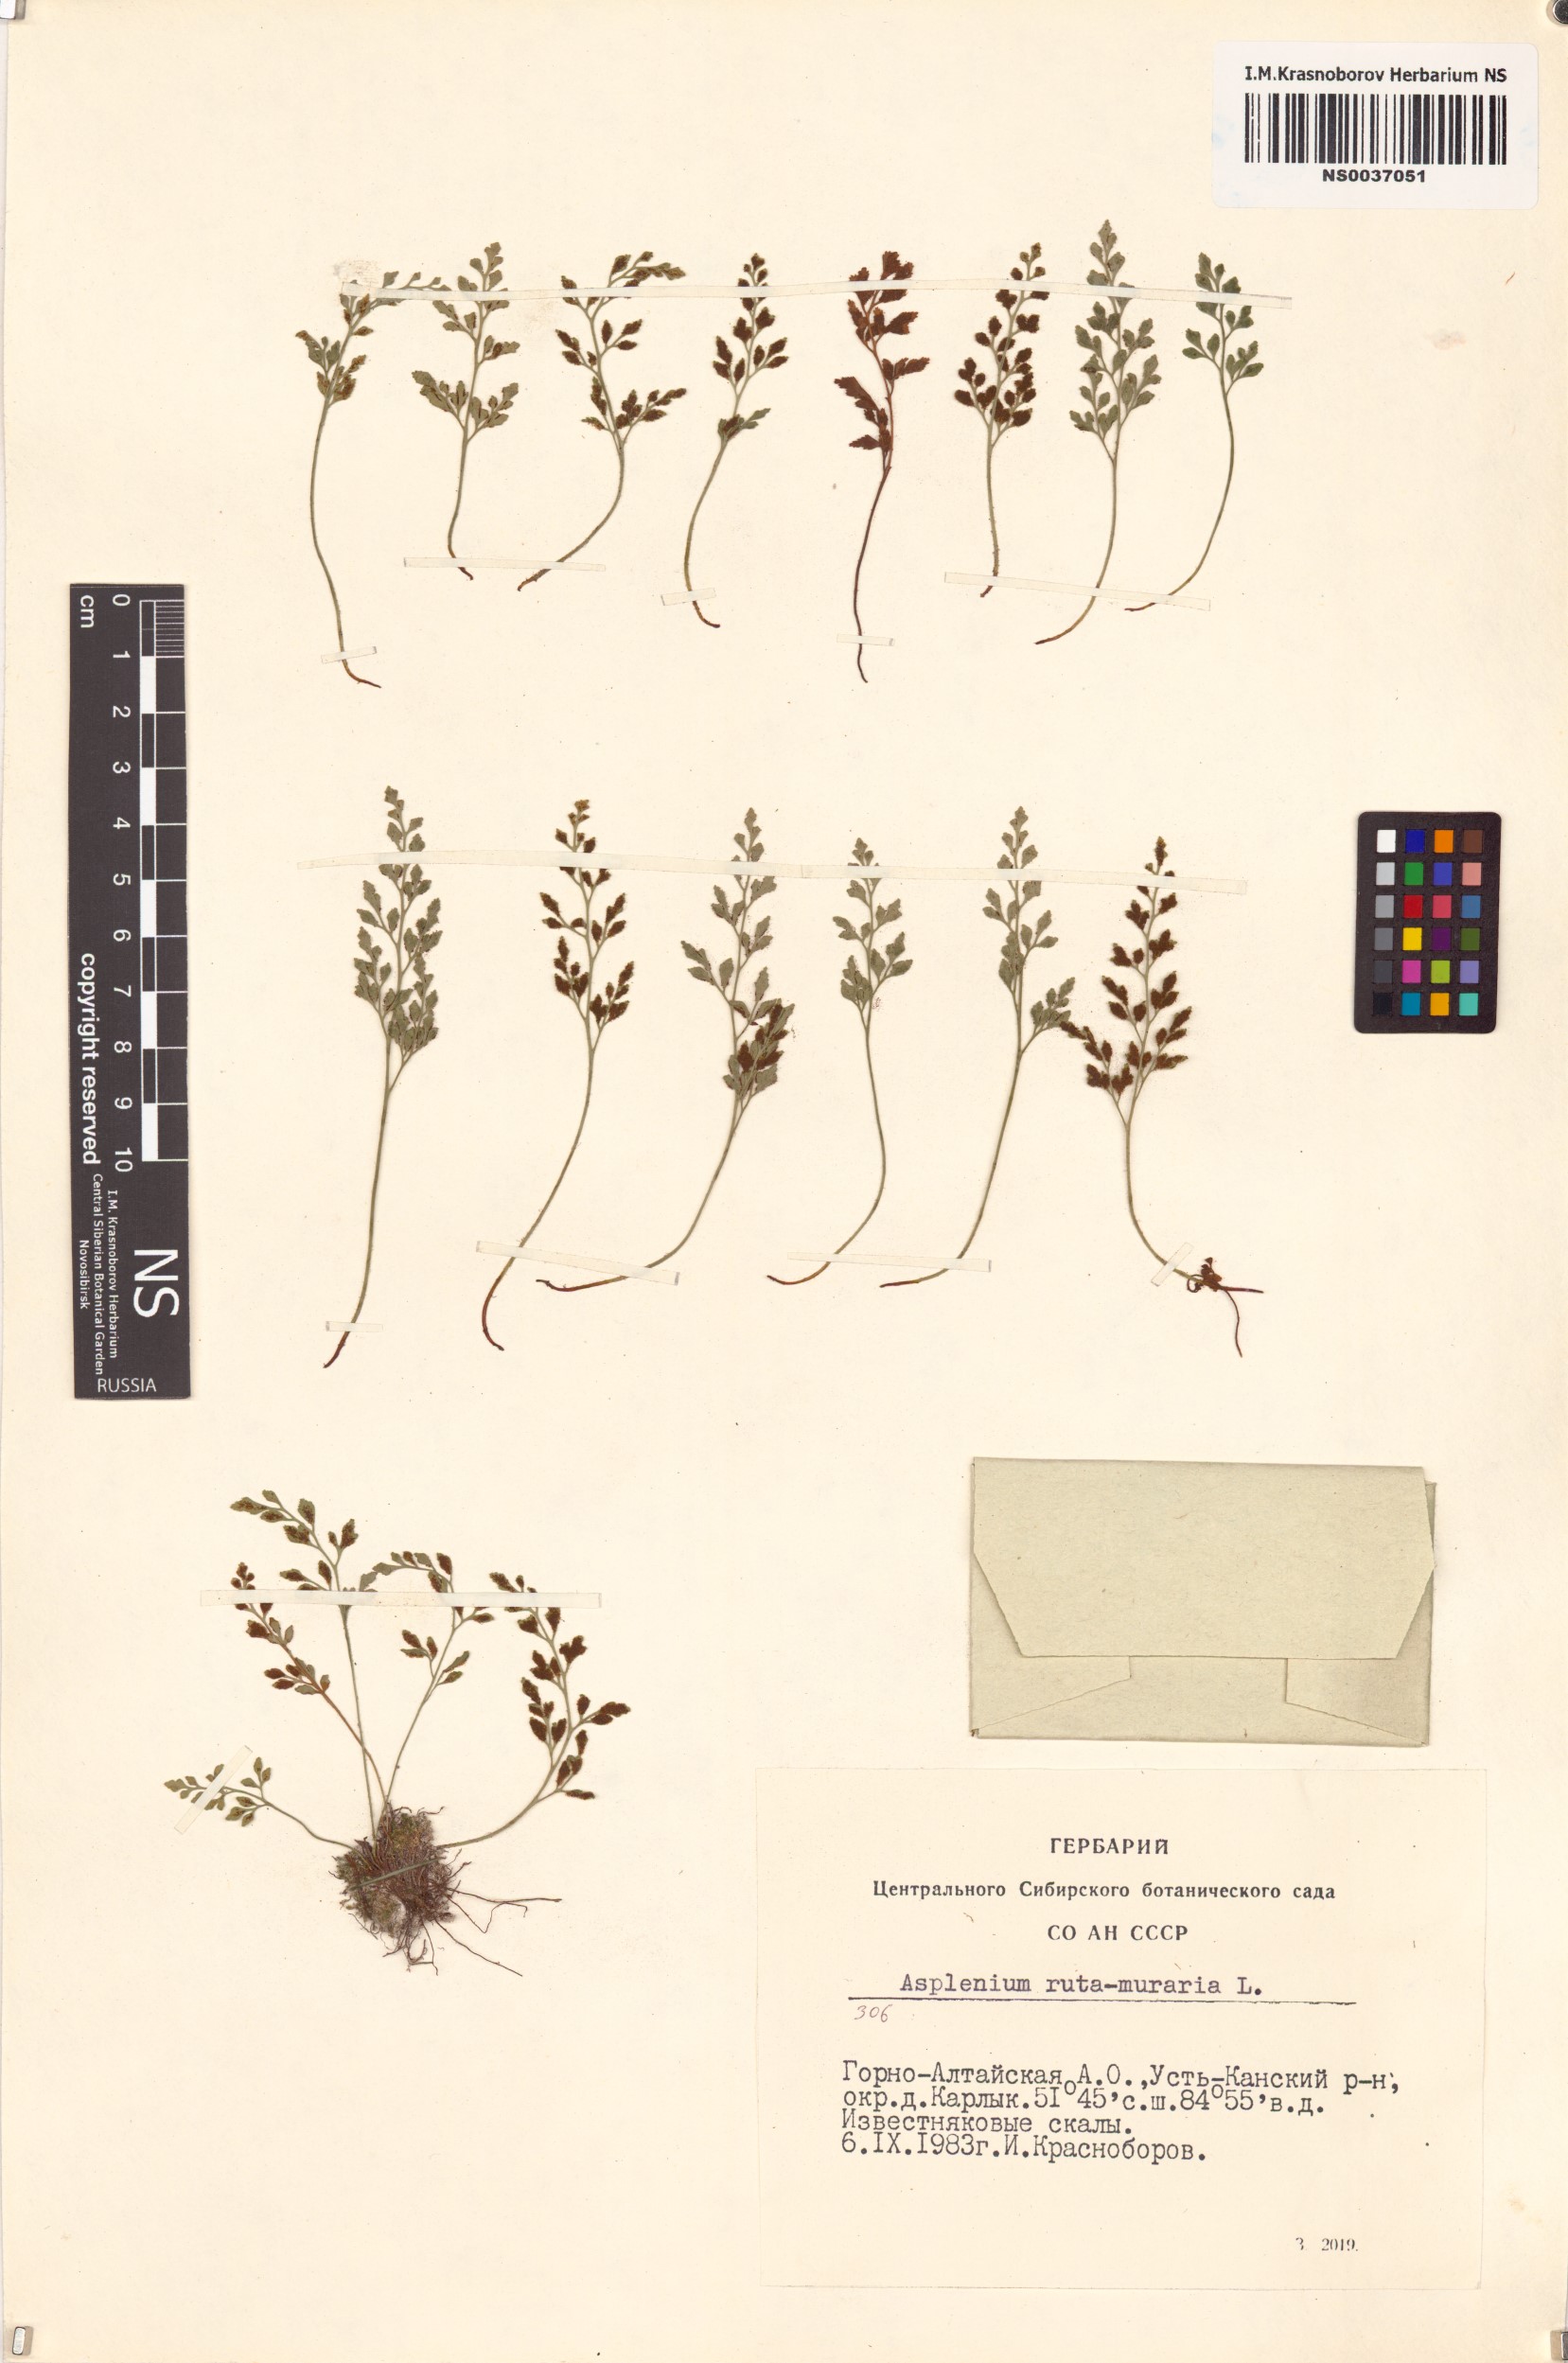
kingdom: Plantae
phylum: Tracheophyta
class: Polypodiopsida
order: Polypodiales
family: Aspleniaceae
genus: Asplenium
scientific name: Asplenium ruta-muraria
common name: Wall-rue
